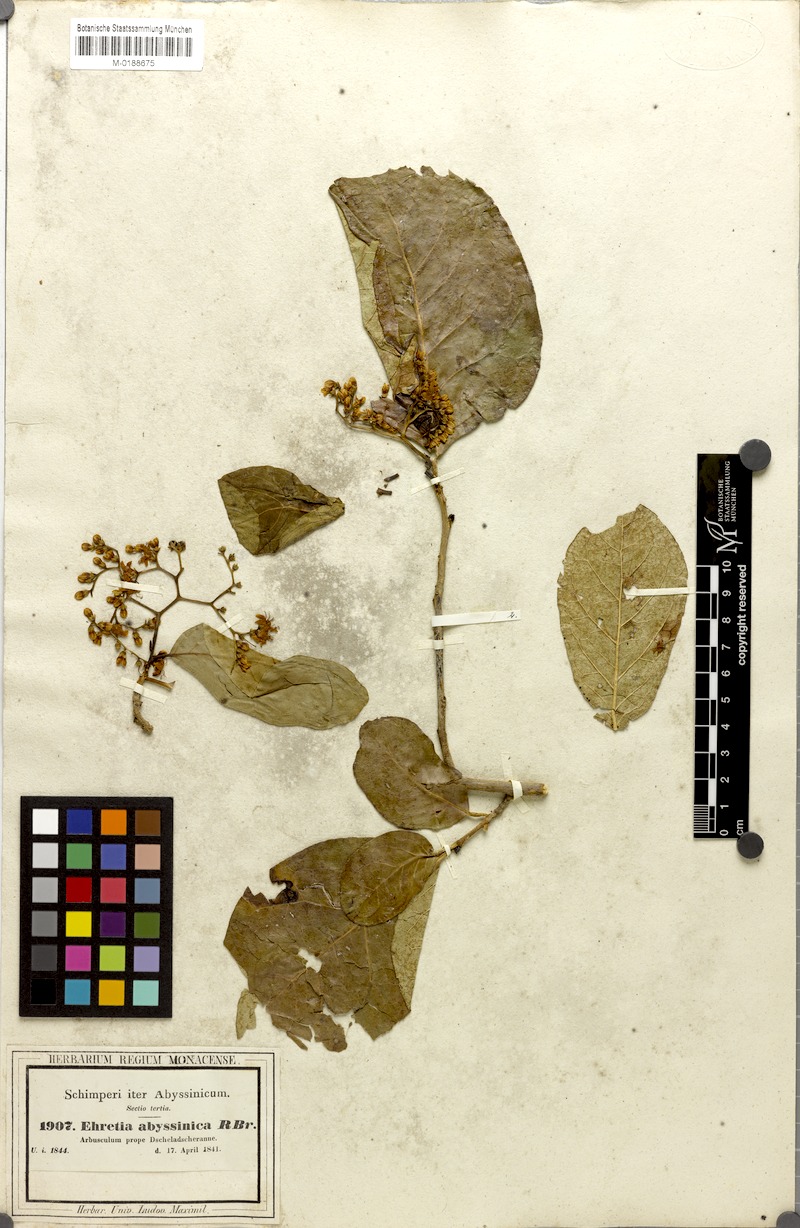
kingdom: Plantae
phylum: Tracheophyta
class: Magnoliopsida
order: Boraginales
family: Ehretiaceae
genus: Ehretia
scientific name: Ehretia cymosa
